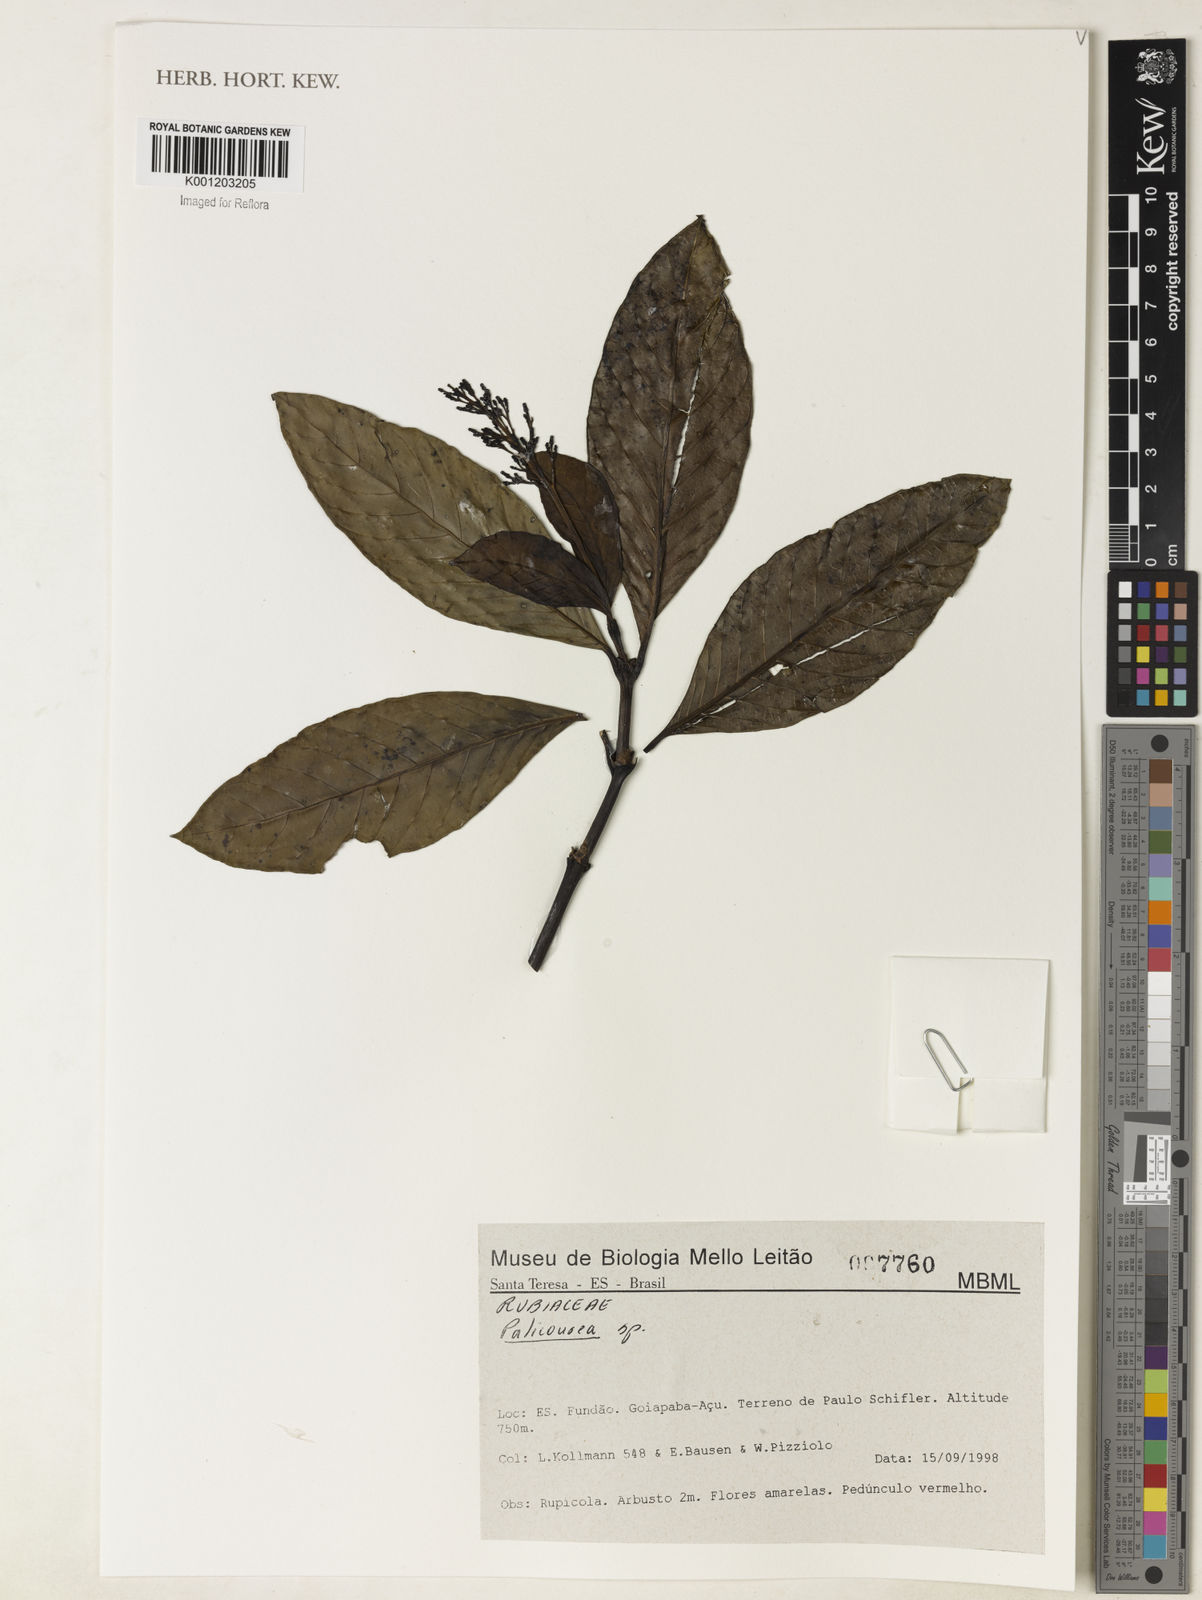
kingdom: Plantae
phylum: Tracheophyta
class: Magnoliopsida
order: Gentianales
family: Rubiaceae
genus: Palicourea
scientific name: Palicourea
